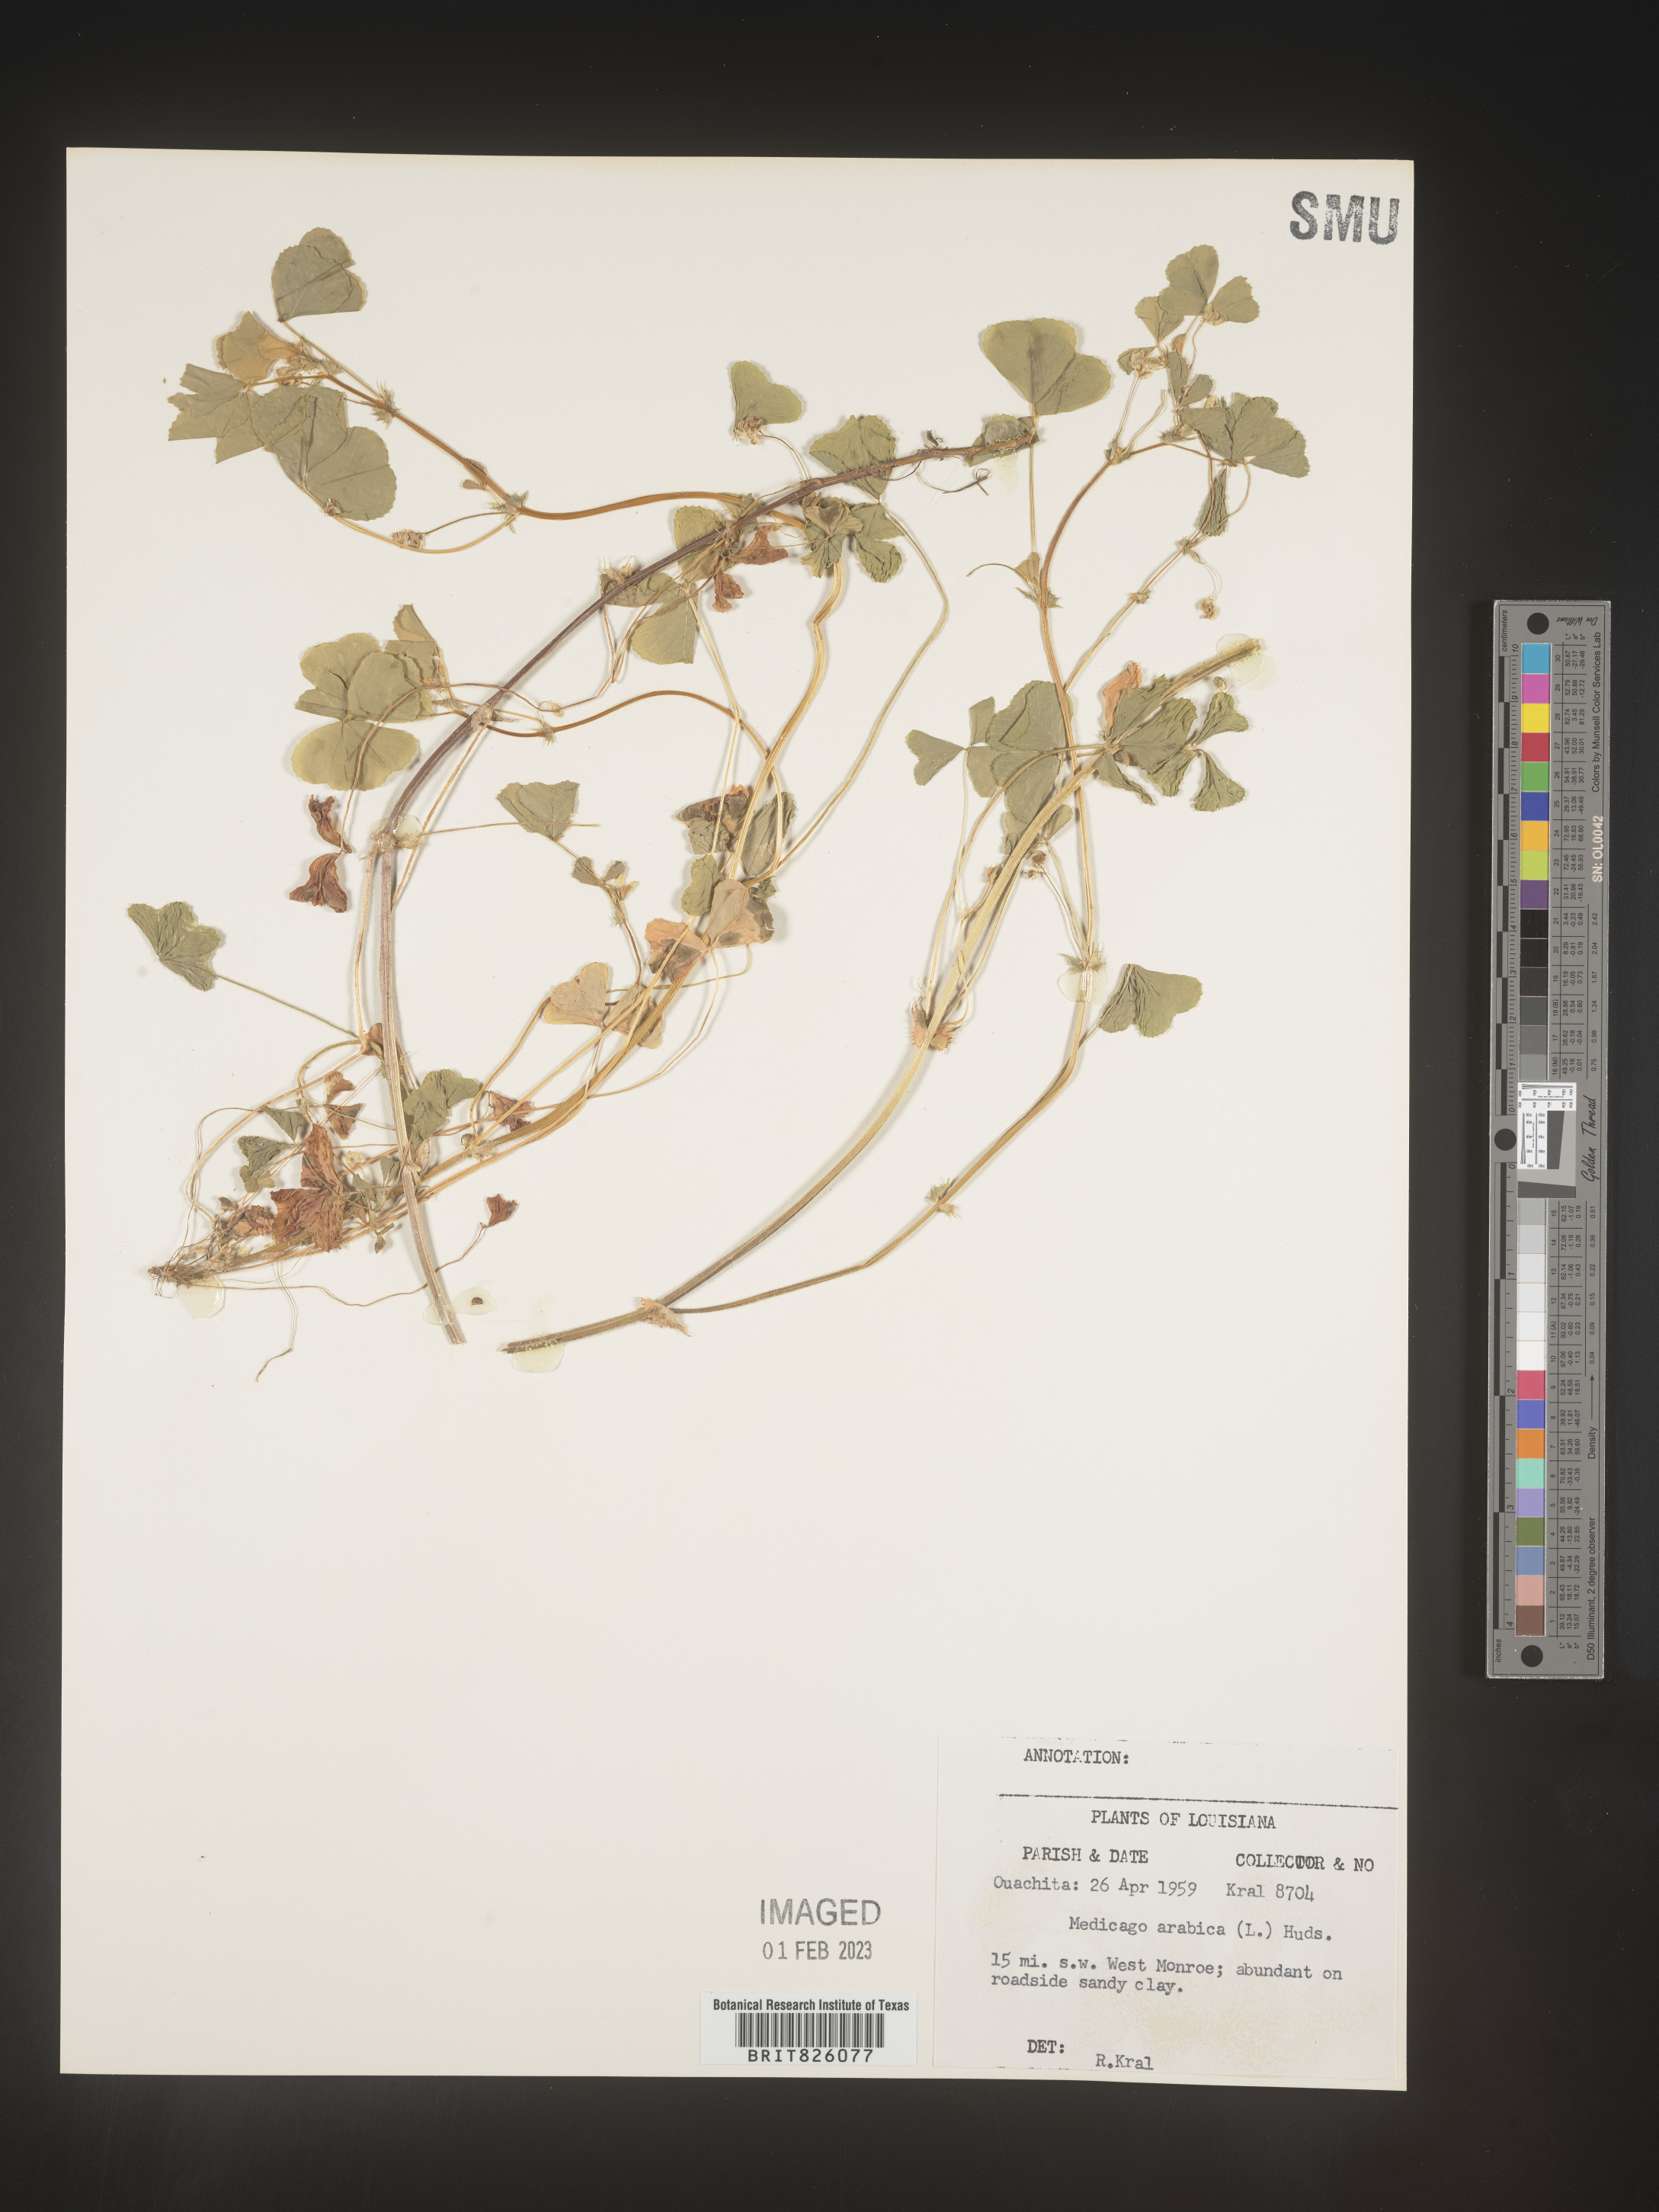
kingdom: Plantae
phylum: Tracheophyta
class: Magnoliopsida
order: Fabales
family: Fabaceae
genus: Medicago
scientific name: Medicago arabica
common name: Spotted medick
